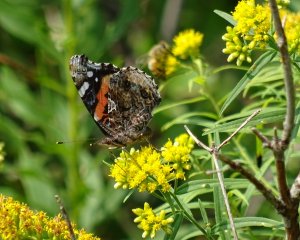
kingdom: Animalia
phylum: Arthropoda
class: Insecta
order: Lepidoptera
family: Nymphalidae
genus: Vanessa
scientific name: Vanessa atalanta
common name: Red Admiral
